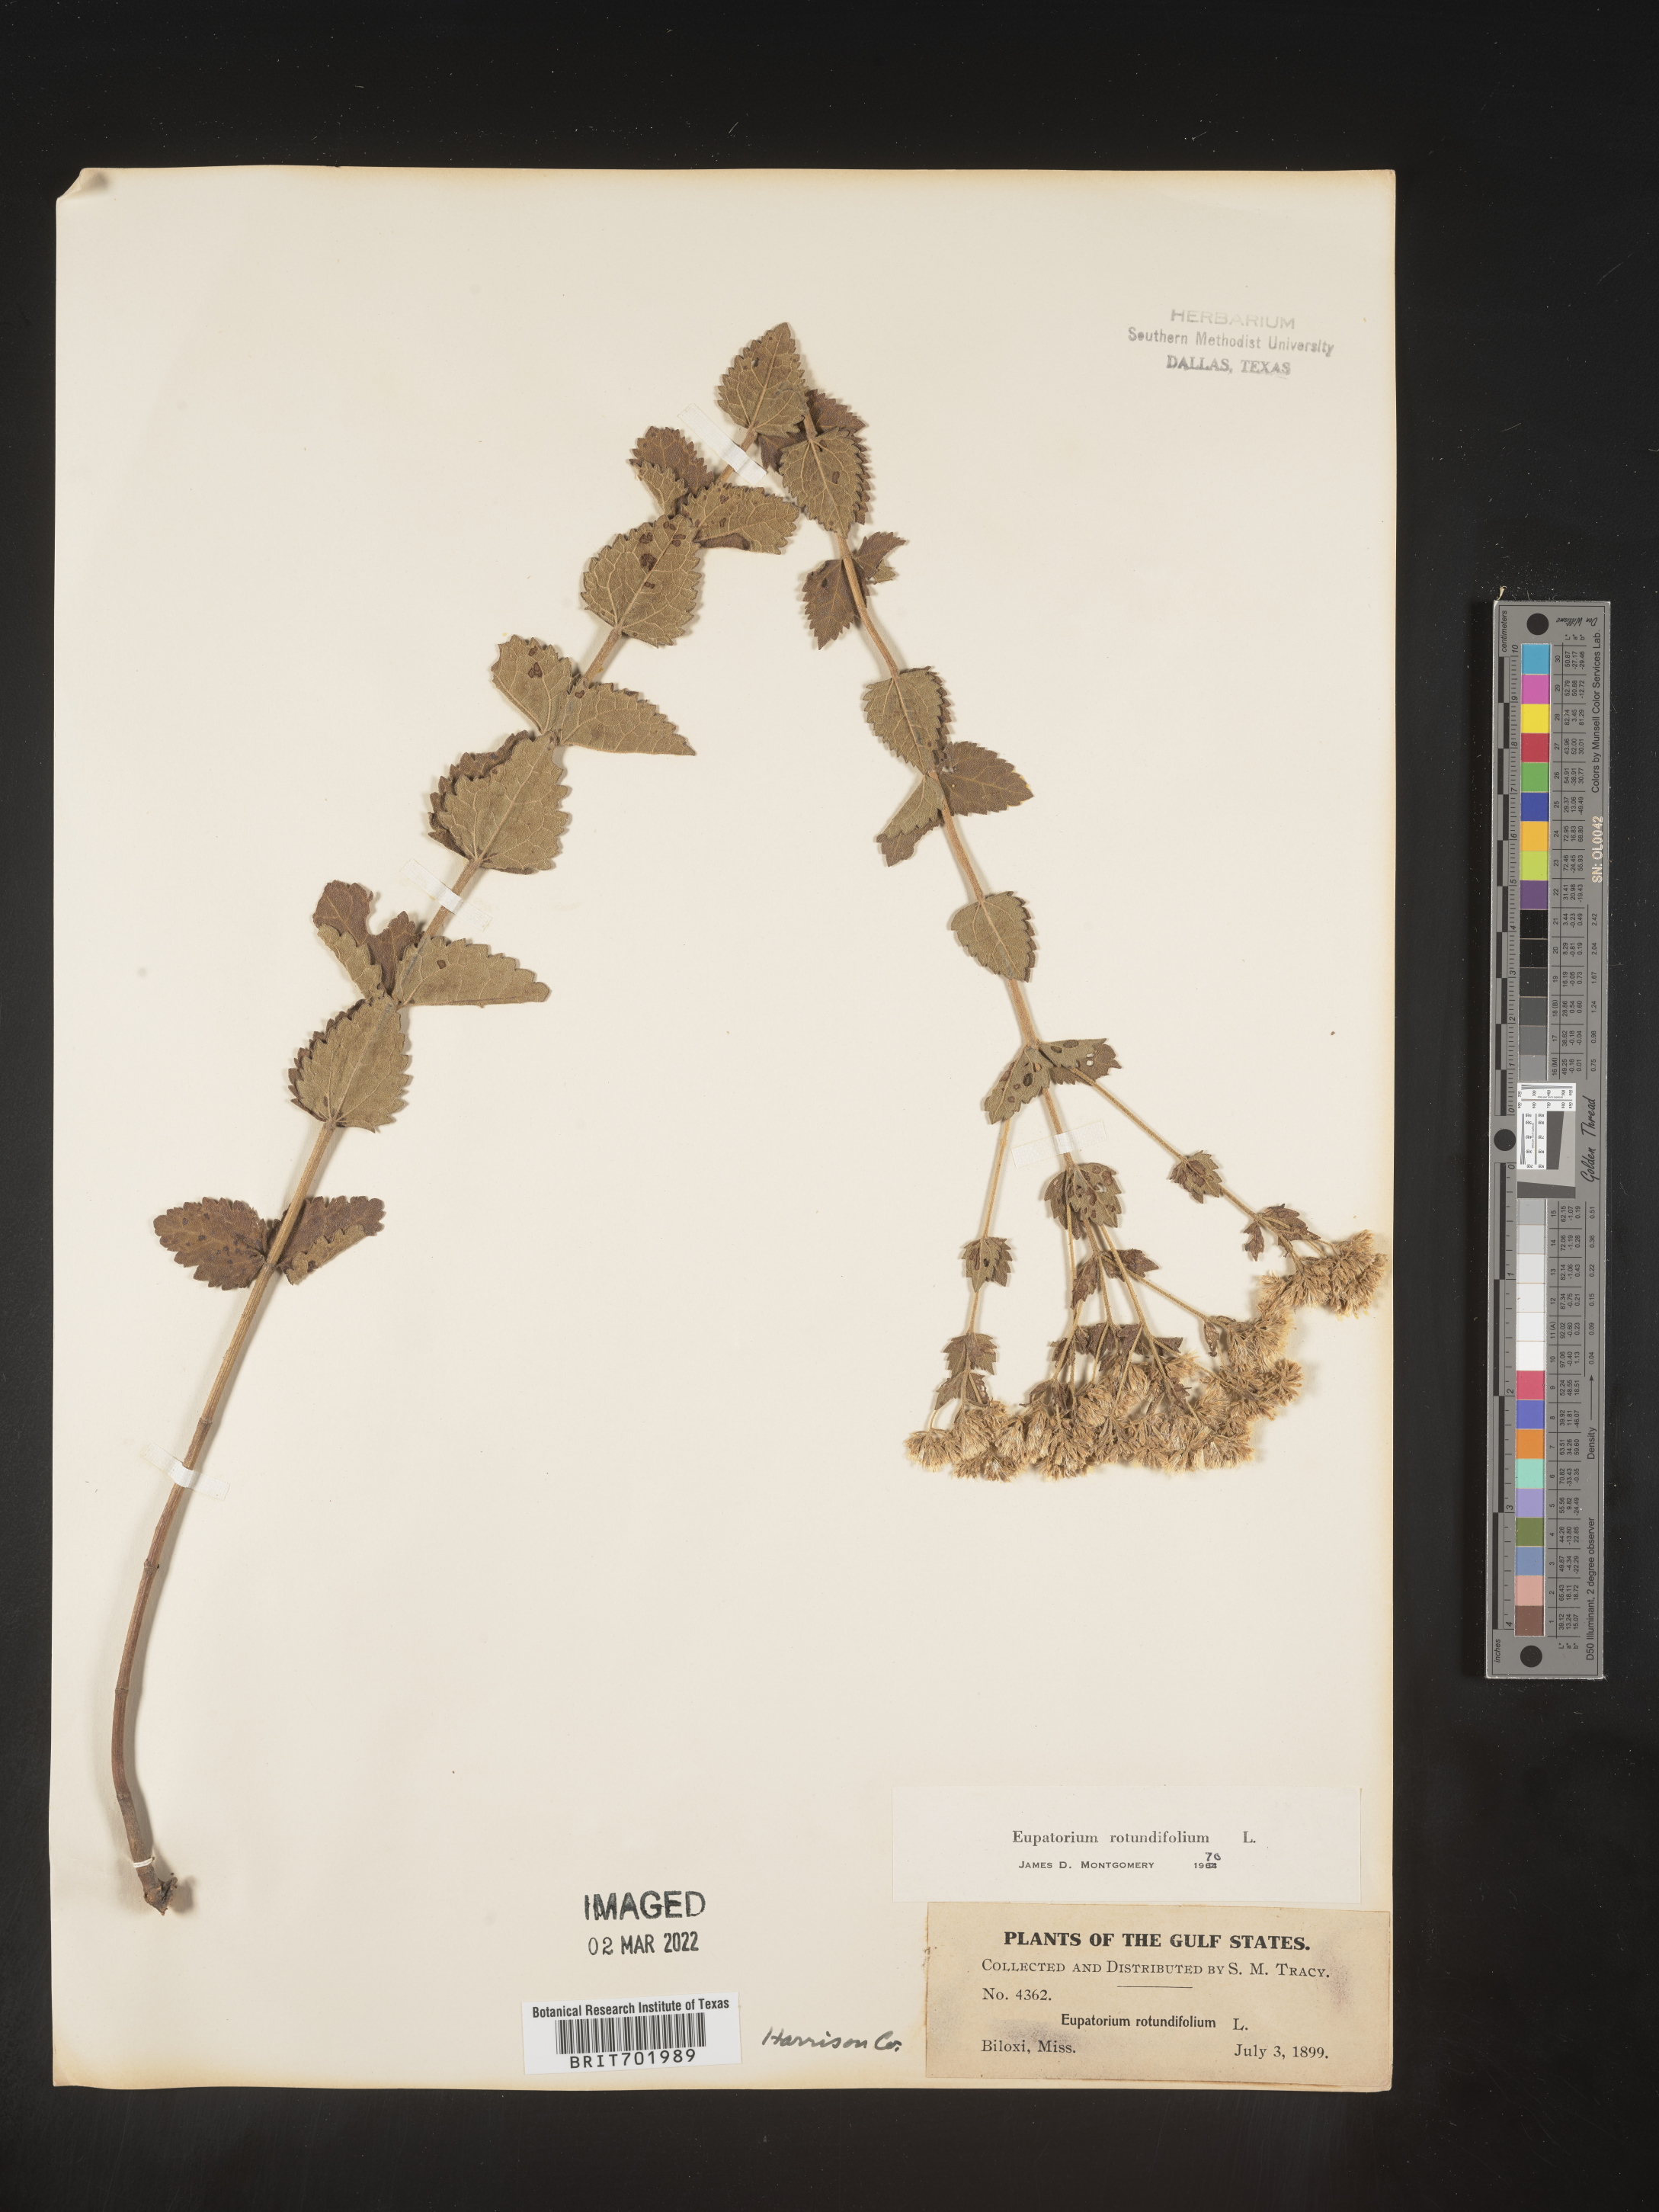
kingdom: Plantae
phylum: Tracheophyta
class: Magnoliopsida
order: Asterales
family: Asteraceae
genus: Eupatorium
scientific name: Eupatorium rotundifolium
